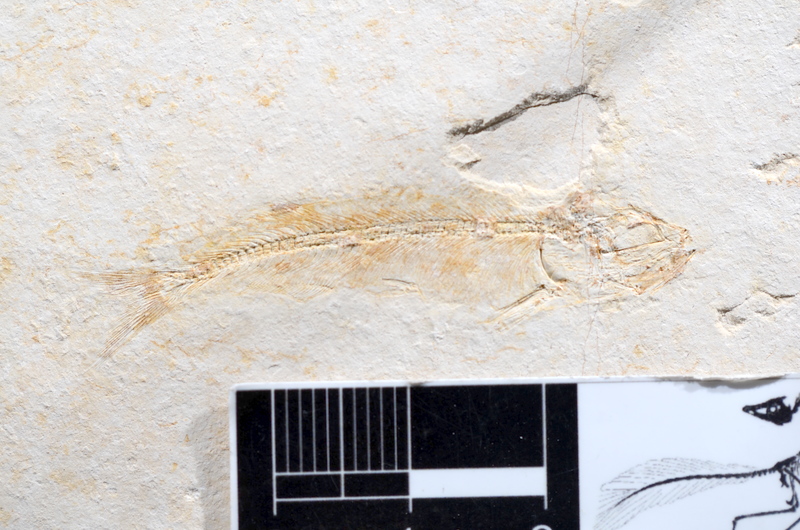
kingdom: Animalia
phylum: Chordata
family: Allothrissopidae
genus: Allothrissops
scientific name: Allothrissops mesogaster
